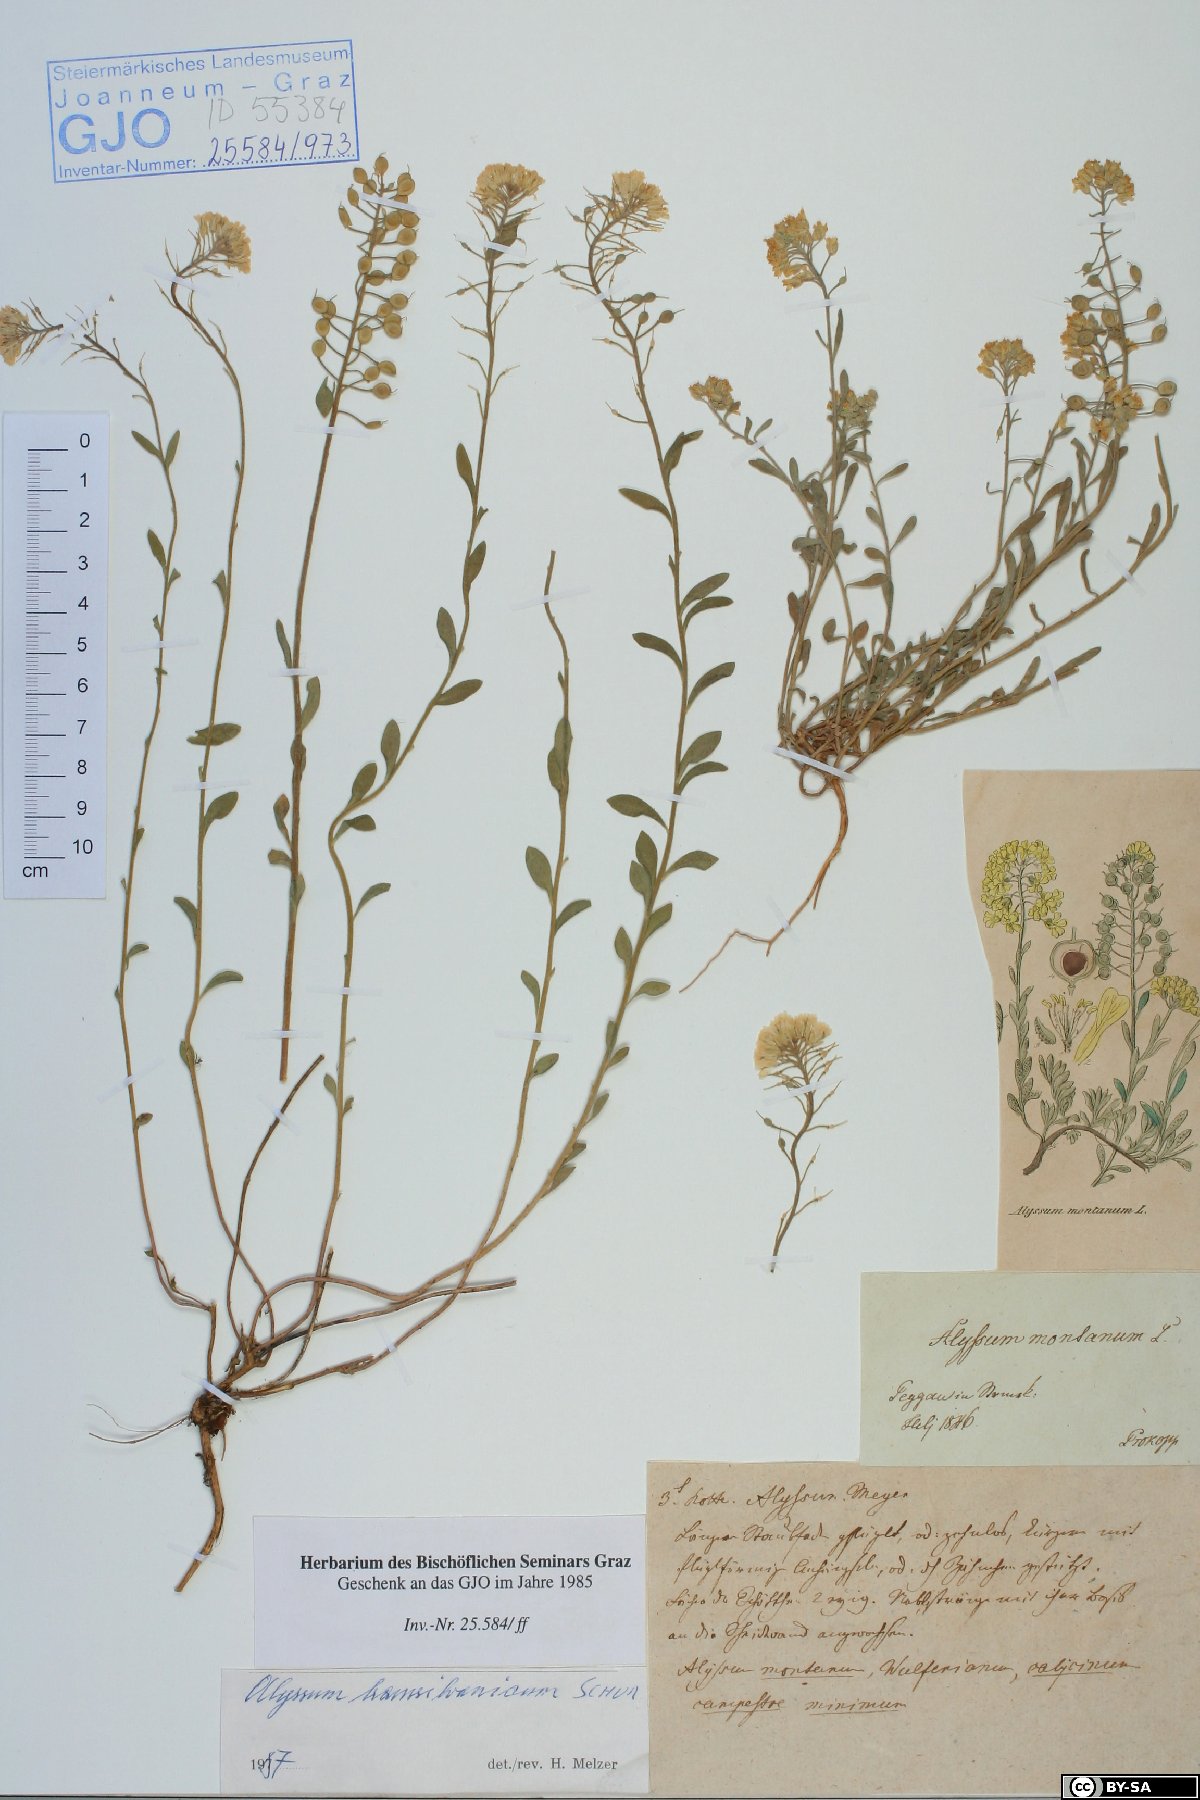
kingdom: Plantae
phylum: Tracheophyta
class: Magnoliopsida
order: Brassicales
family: Brassicaceae
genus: Alyssum
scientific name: Alyssum repens
